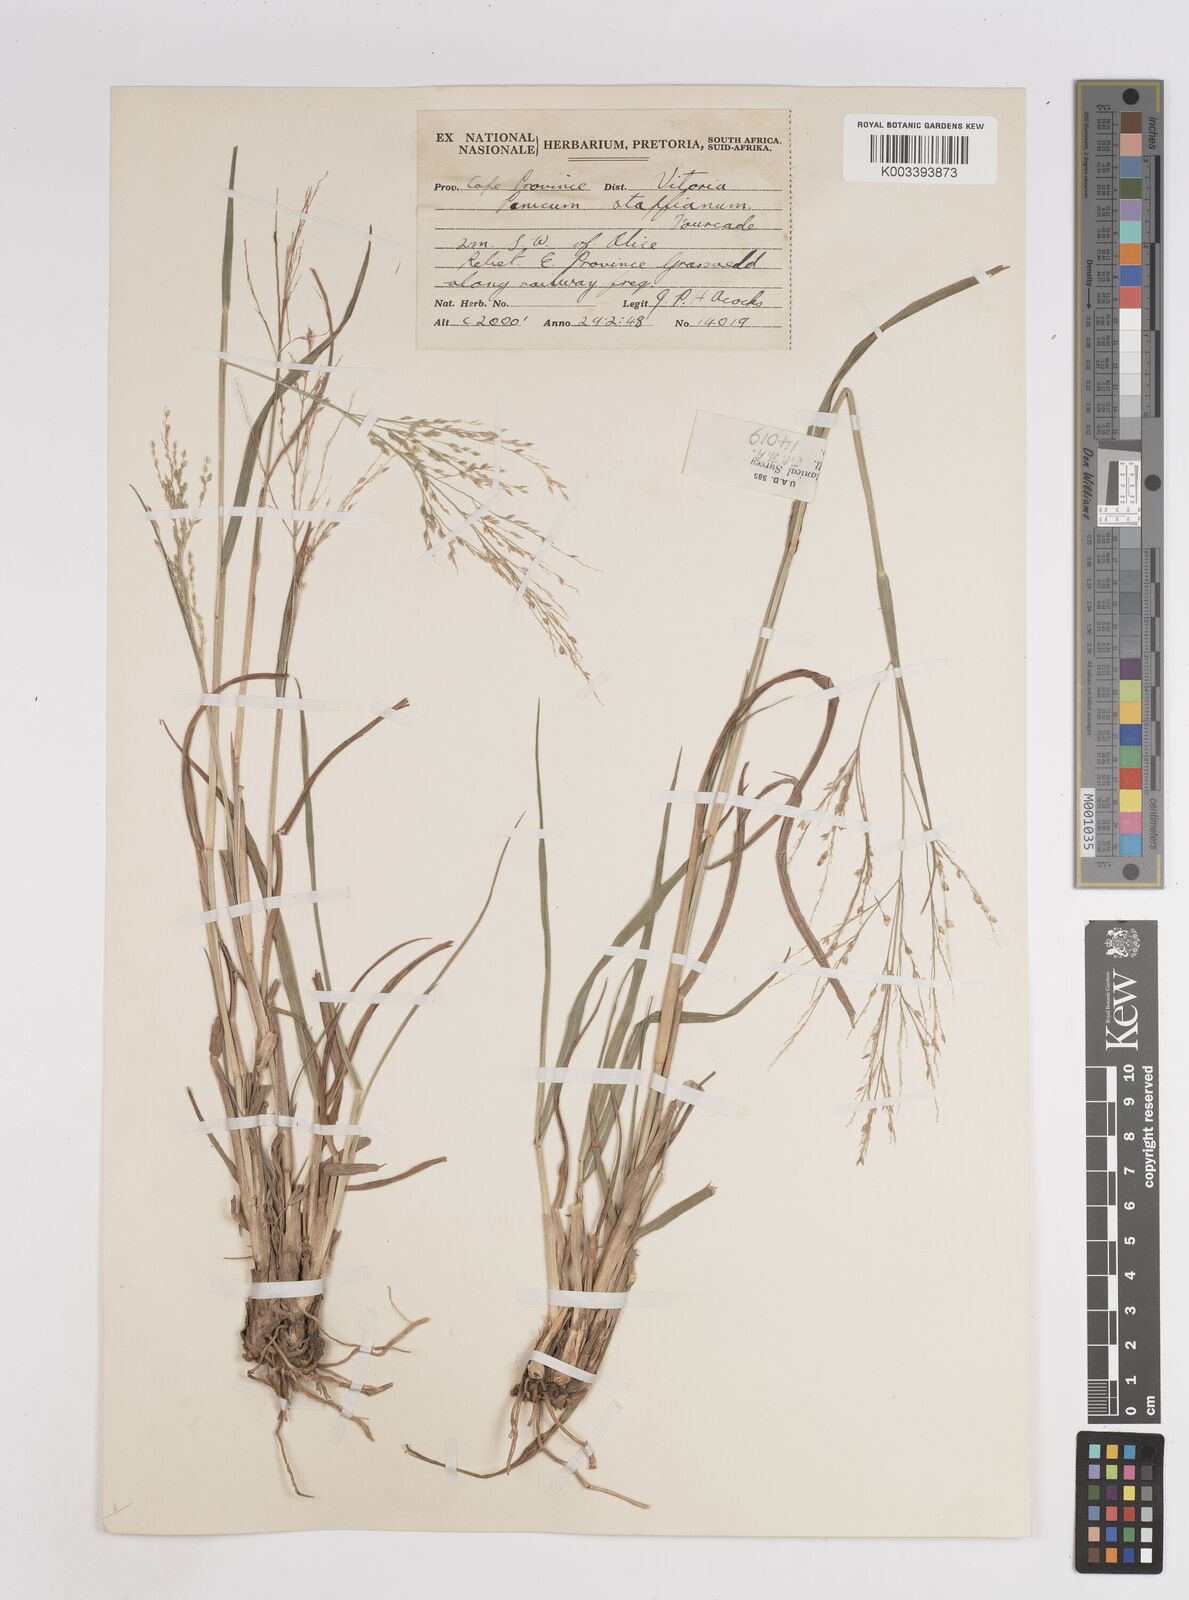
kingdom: Plantae
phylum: Tracheophyta
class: Liliopsida
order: Poales
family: Poaceae
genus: Panicum
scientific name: Panicum stapfianum
